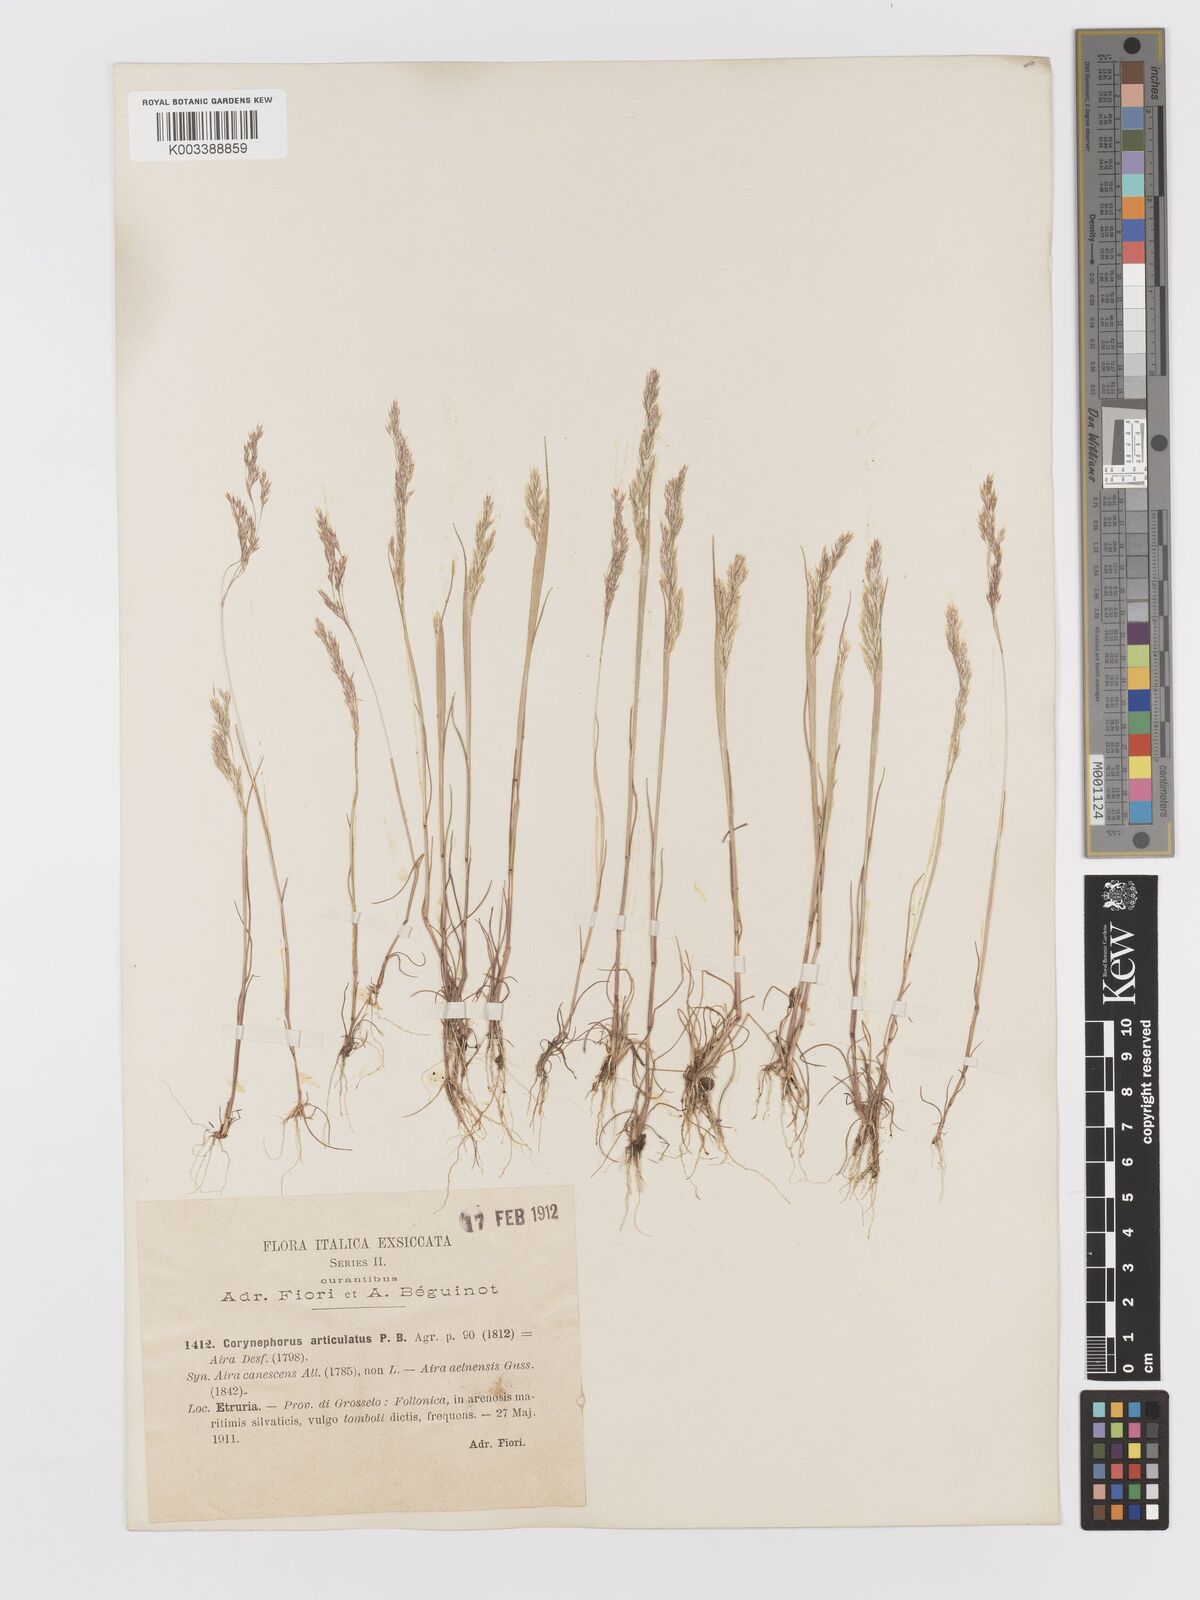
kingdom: Plantae
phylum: Tracheophyta
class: Liliopsida
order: Poales
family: Poaceae
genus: Corynephorus
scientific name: Corynephorus divaricatus
